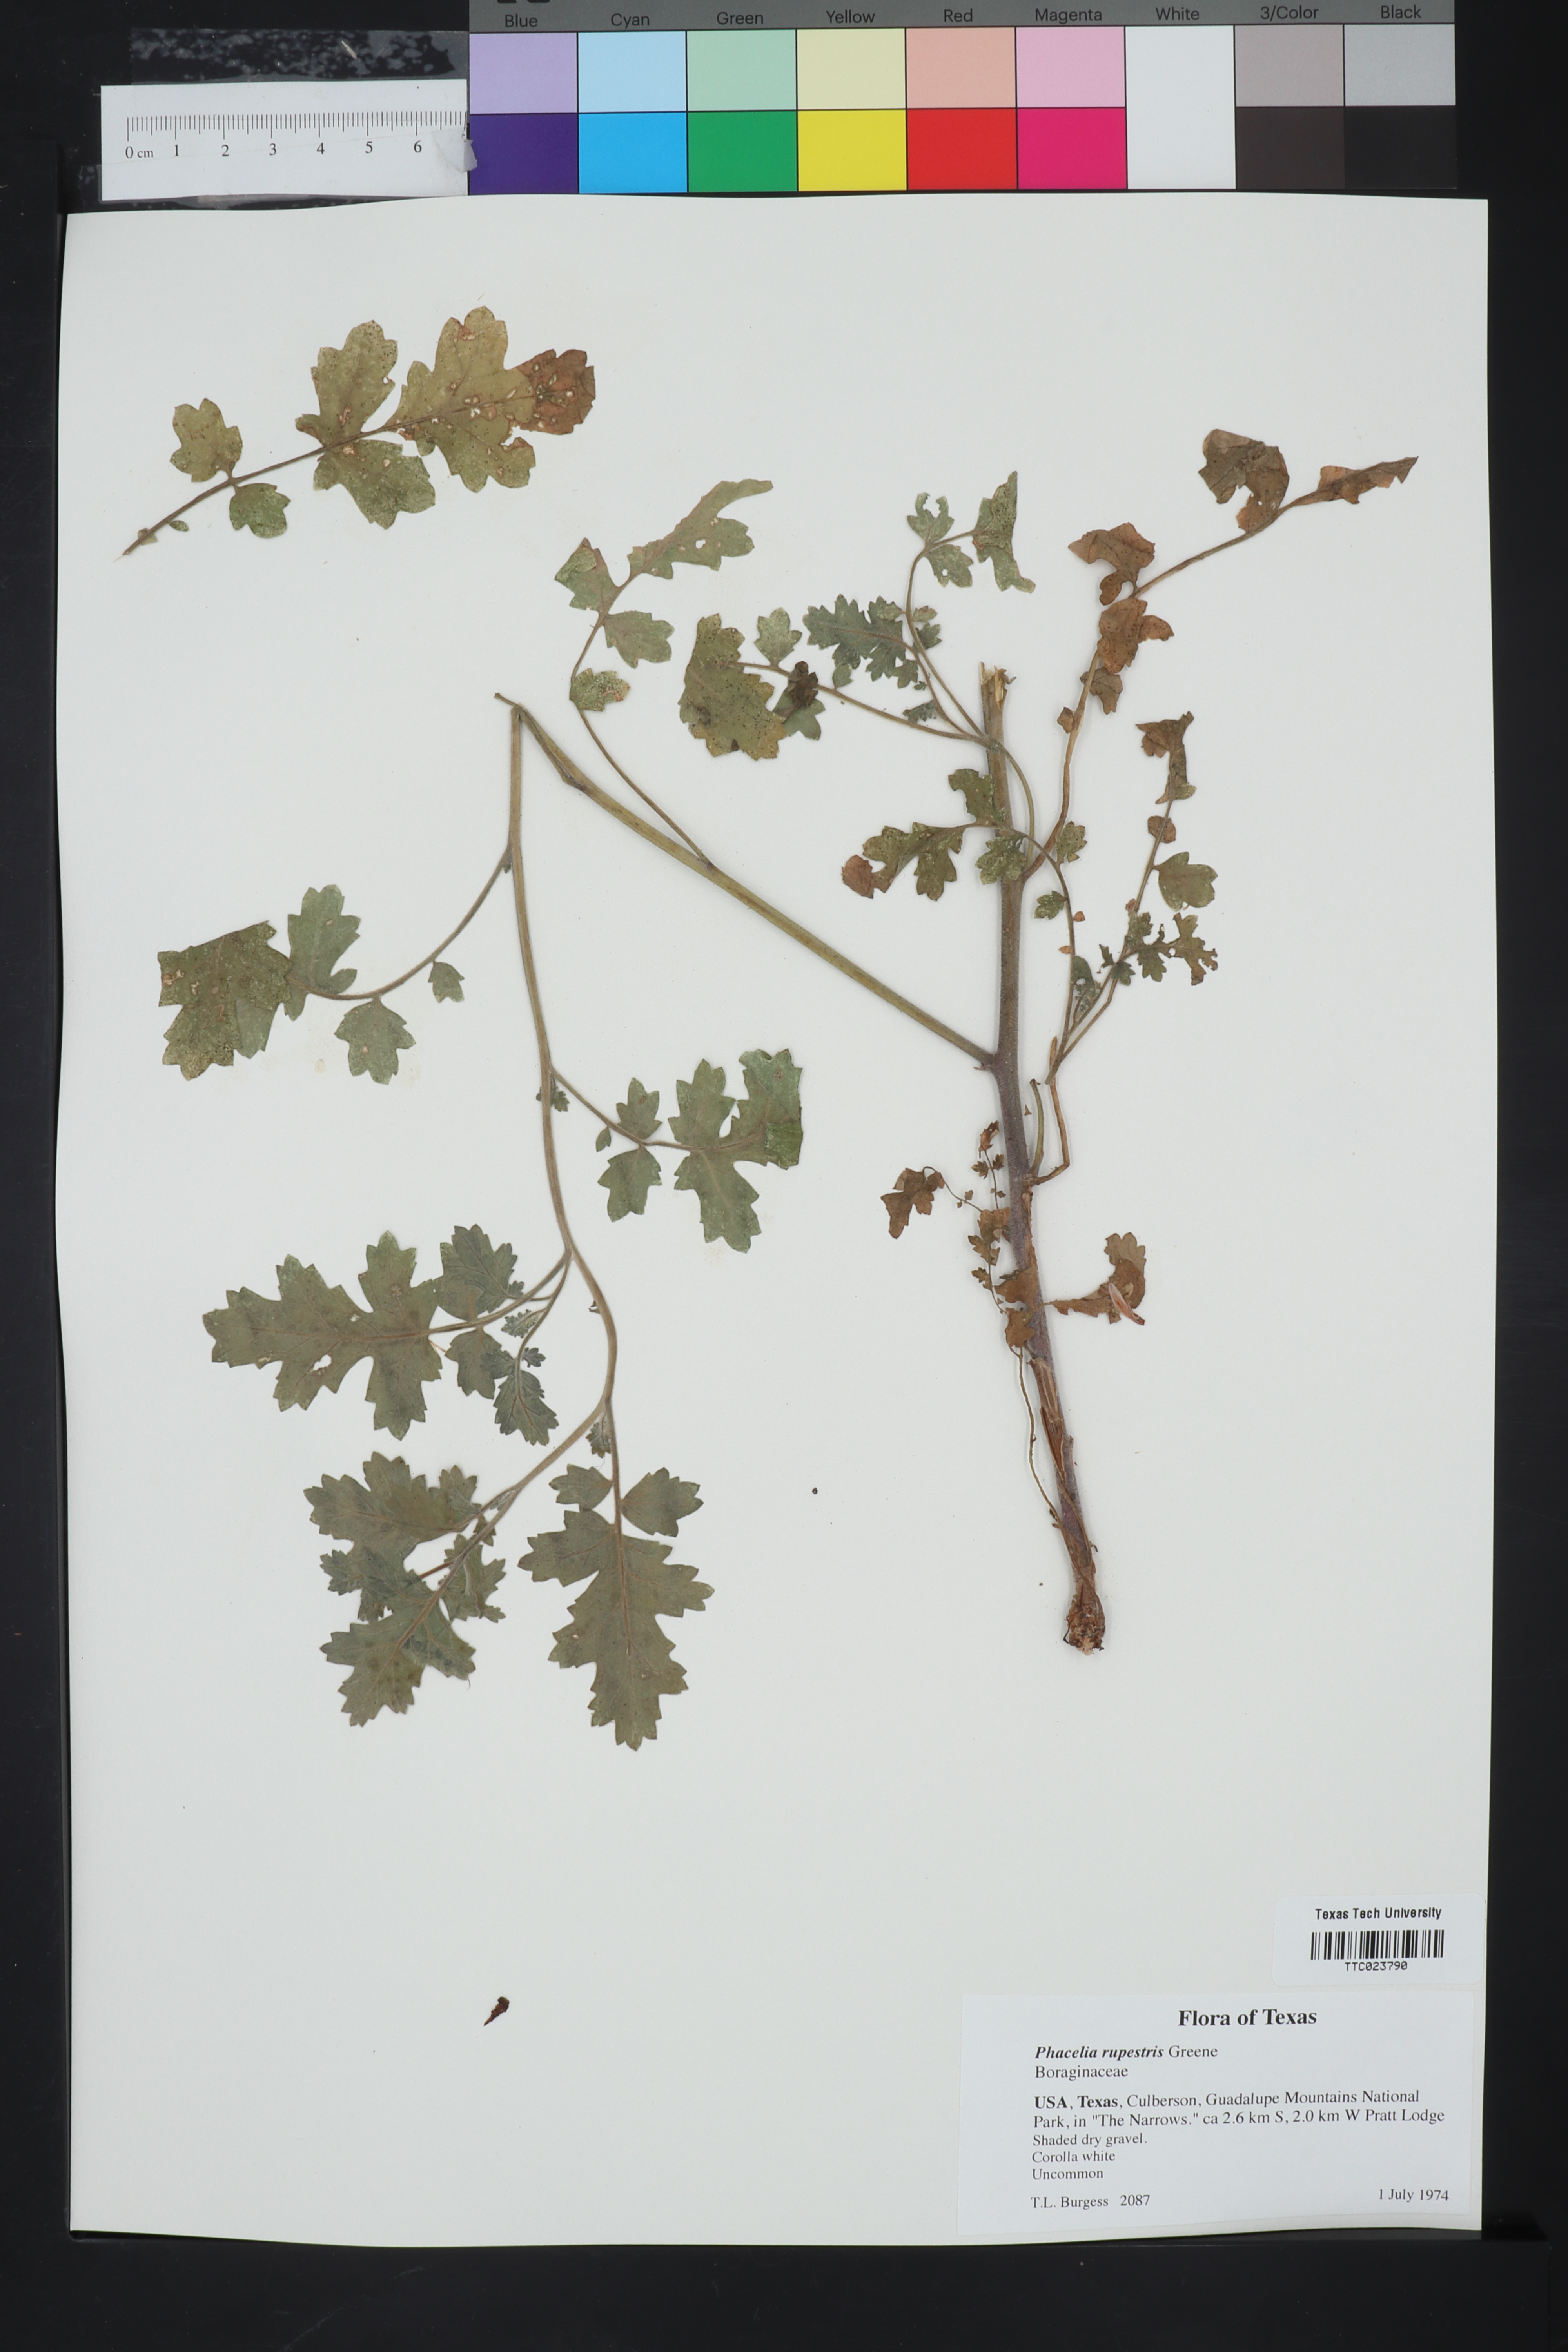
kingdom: Plantae
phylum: Tracheophyta
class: Magnoliopsida
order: Boraginales
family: Hydrophyllaceae
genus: Phacelia
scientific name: Phacelia rupestris
